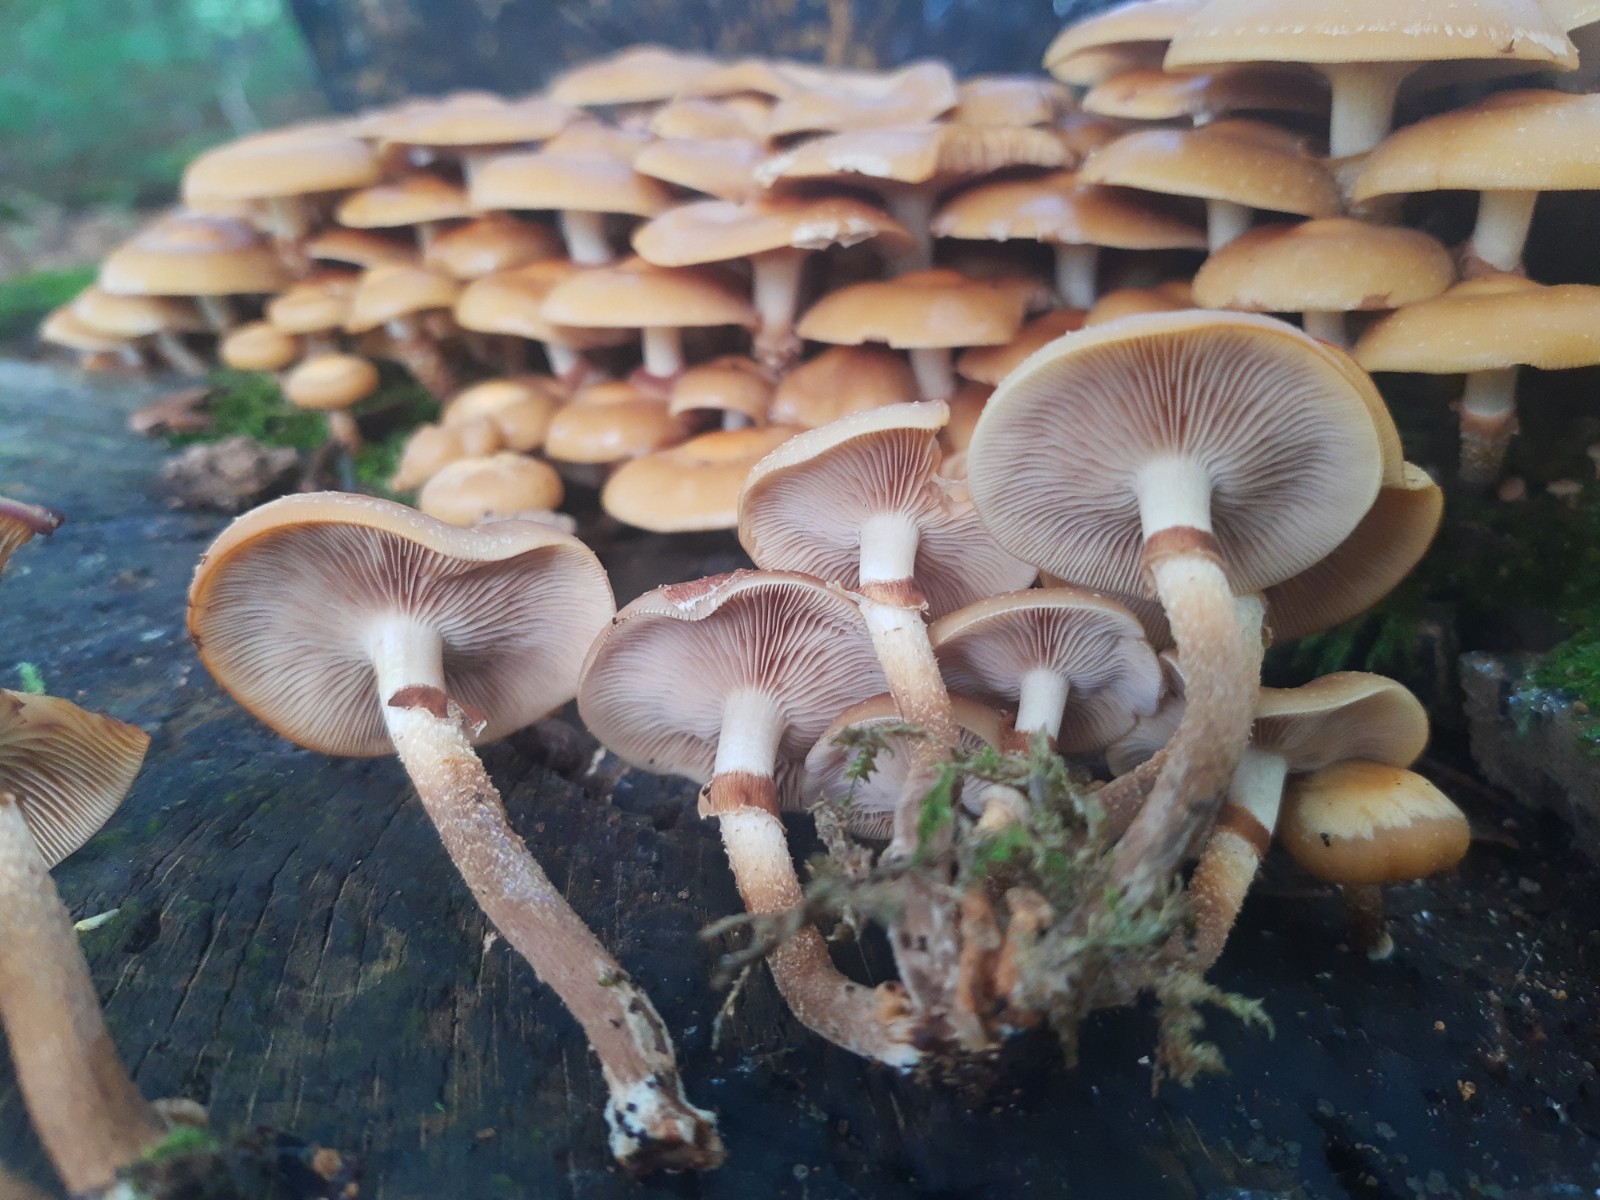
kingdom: Fungi
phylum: Basidiomycota
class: Agaricomycetes
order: Agaricales
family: Strophariaceae
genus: Kuehneromyces
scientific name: Kuehneromyces mutabilis
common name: foranderlig skælhat
